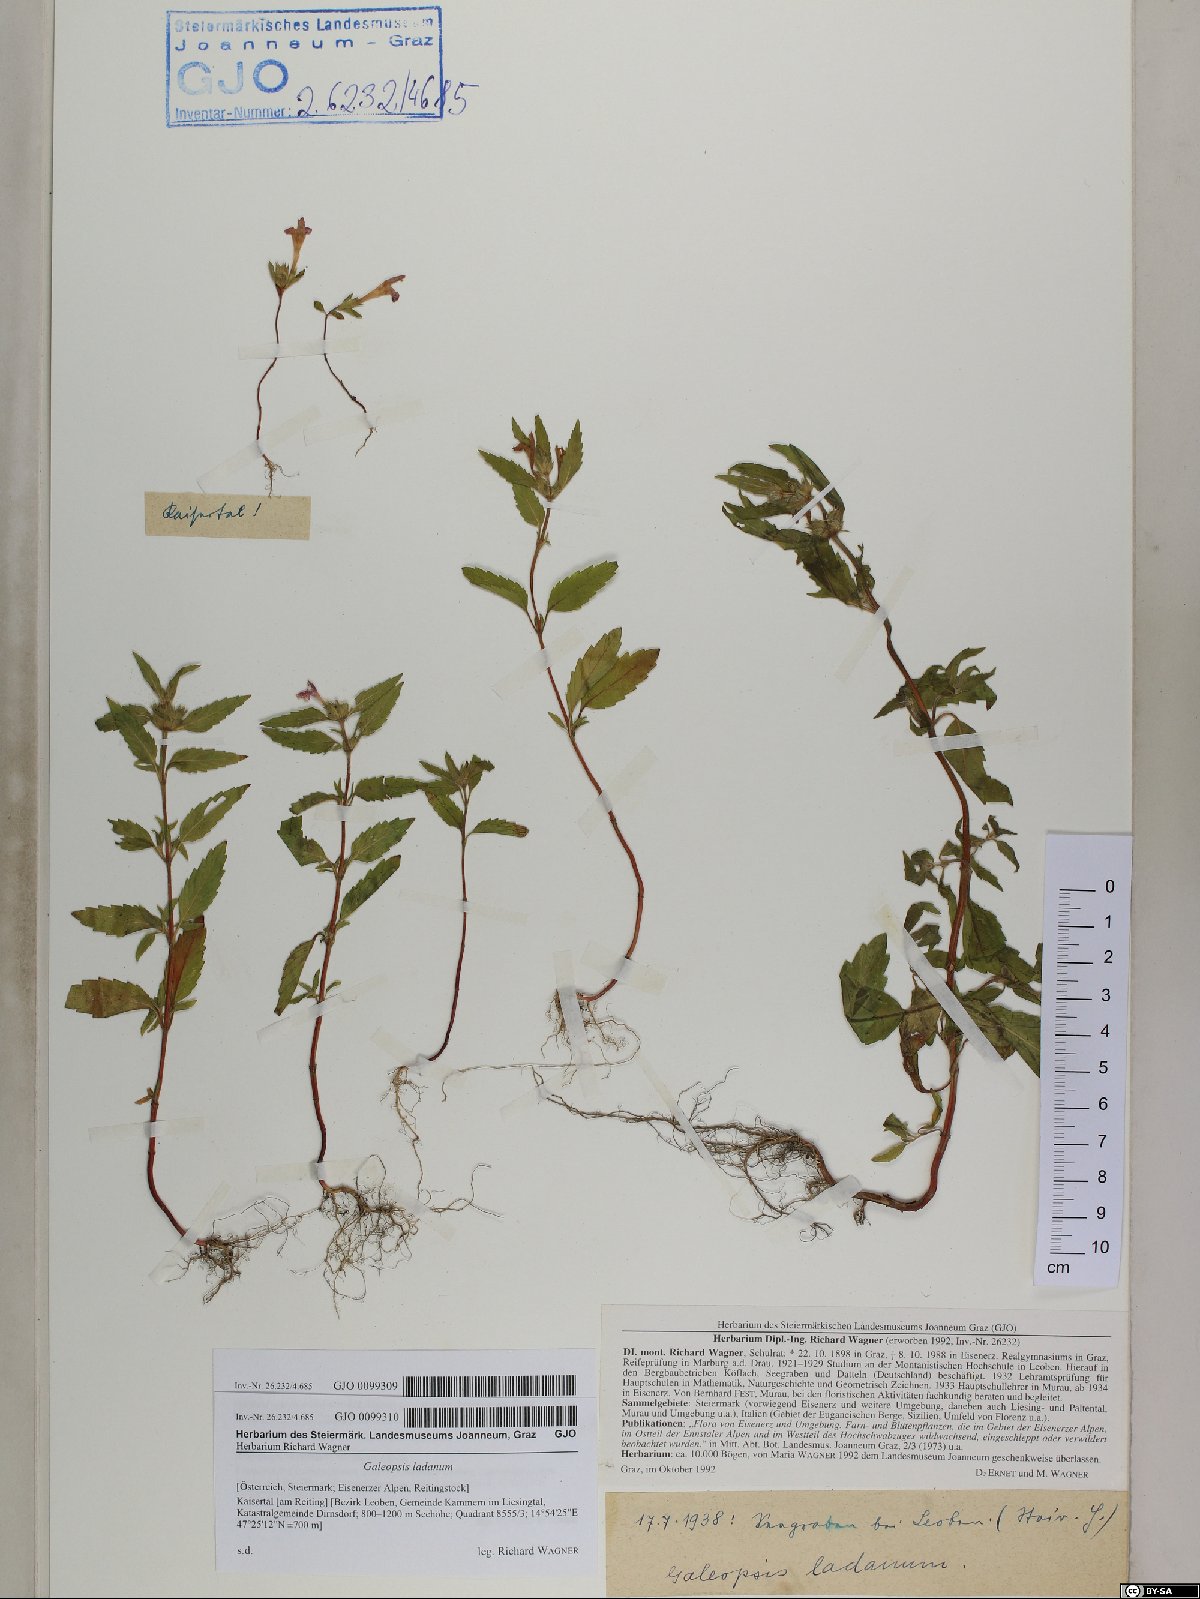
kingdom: Plantae
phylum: Tracheophyta
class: Magnoliopsida
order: Lamiales
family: Lamiaceae
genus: Galeopsis
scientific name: Galeopsis ladanum
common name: Broad-leaved hemp-nettle
